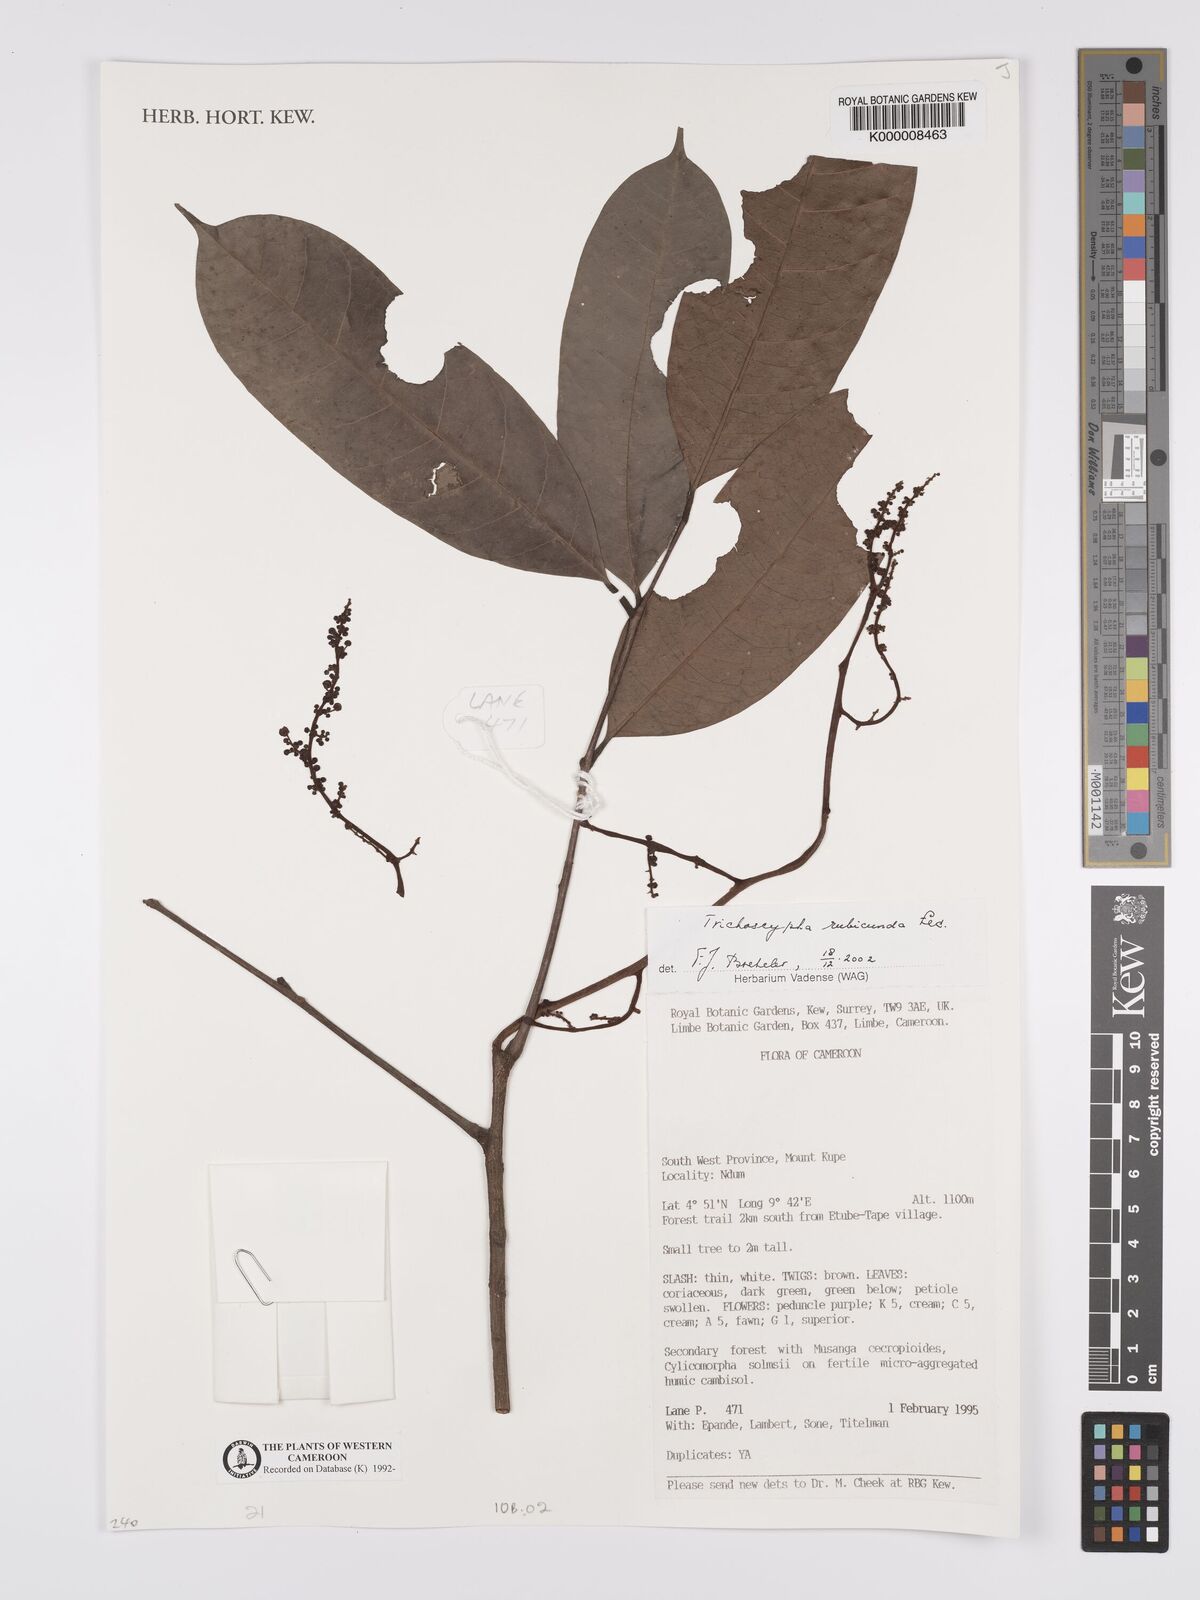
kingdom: Plantae
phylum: Tracheophyta
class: Magnoliopsida
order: Sapindales
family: Anacardiaceae
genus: Trichoscypha
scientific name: Trichoscypha rubicunda
